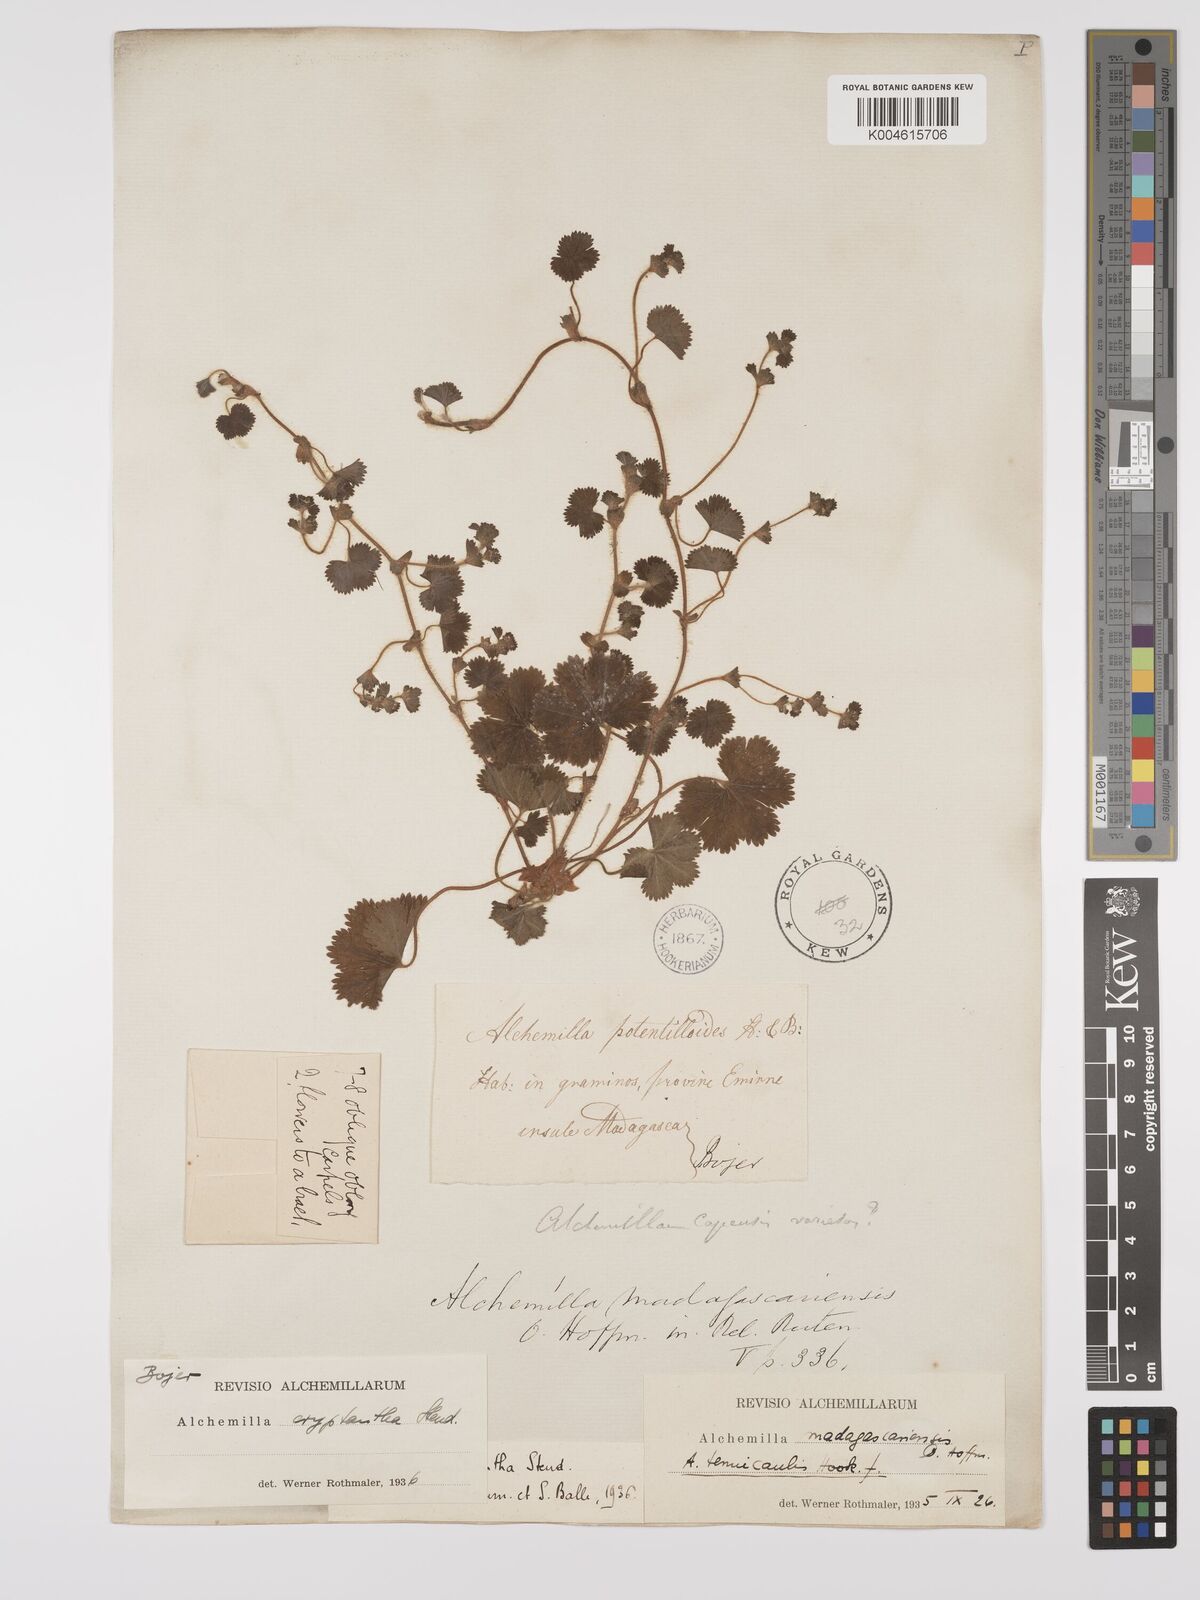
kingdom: Plantae
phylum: Tracheophyta
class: Magnoliopsida
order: Rosales
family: Rosaceae
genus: Alchemilla
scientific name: Alchemilla cryptantha
